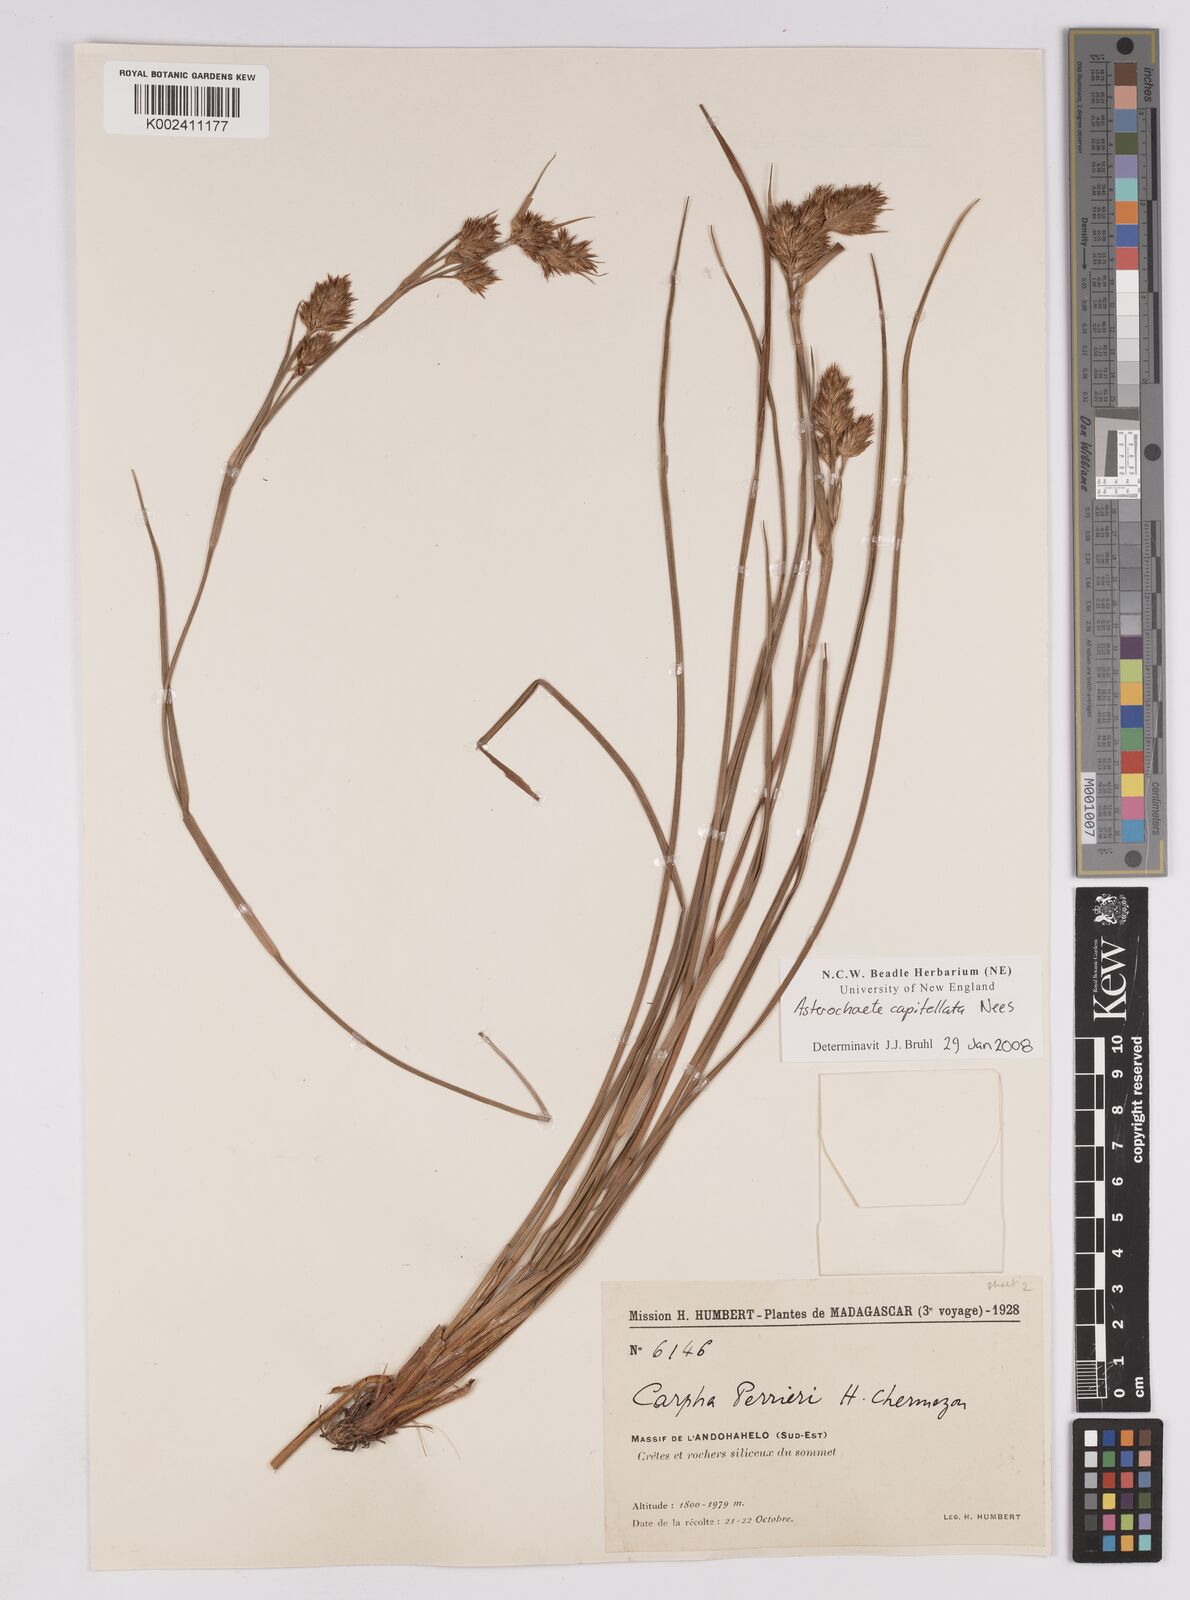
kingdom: Plantae
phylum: Tracheophyta
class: Liliopsida
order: Poales
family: Cyperaceae
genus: Carpha
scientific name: Carpha capitellata
